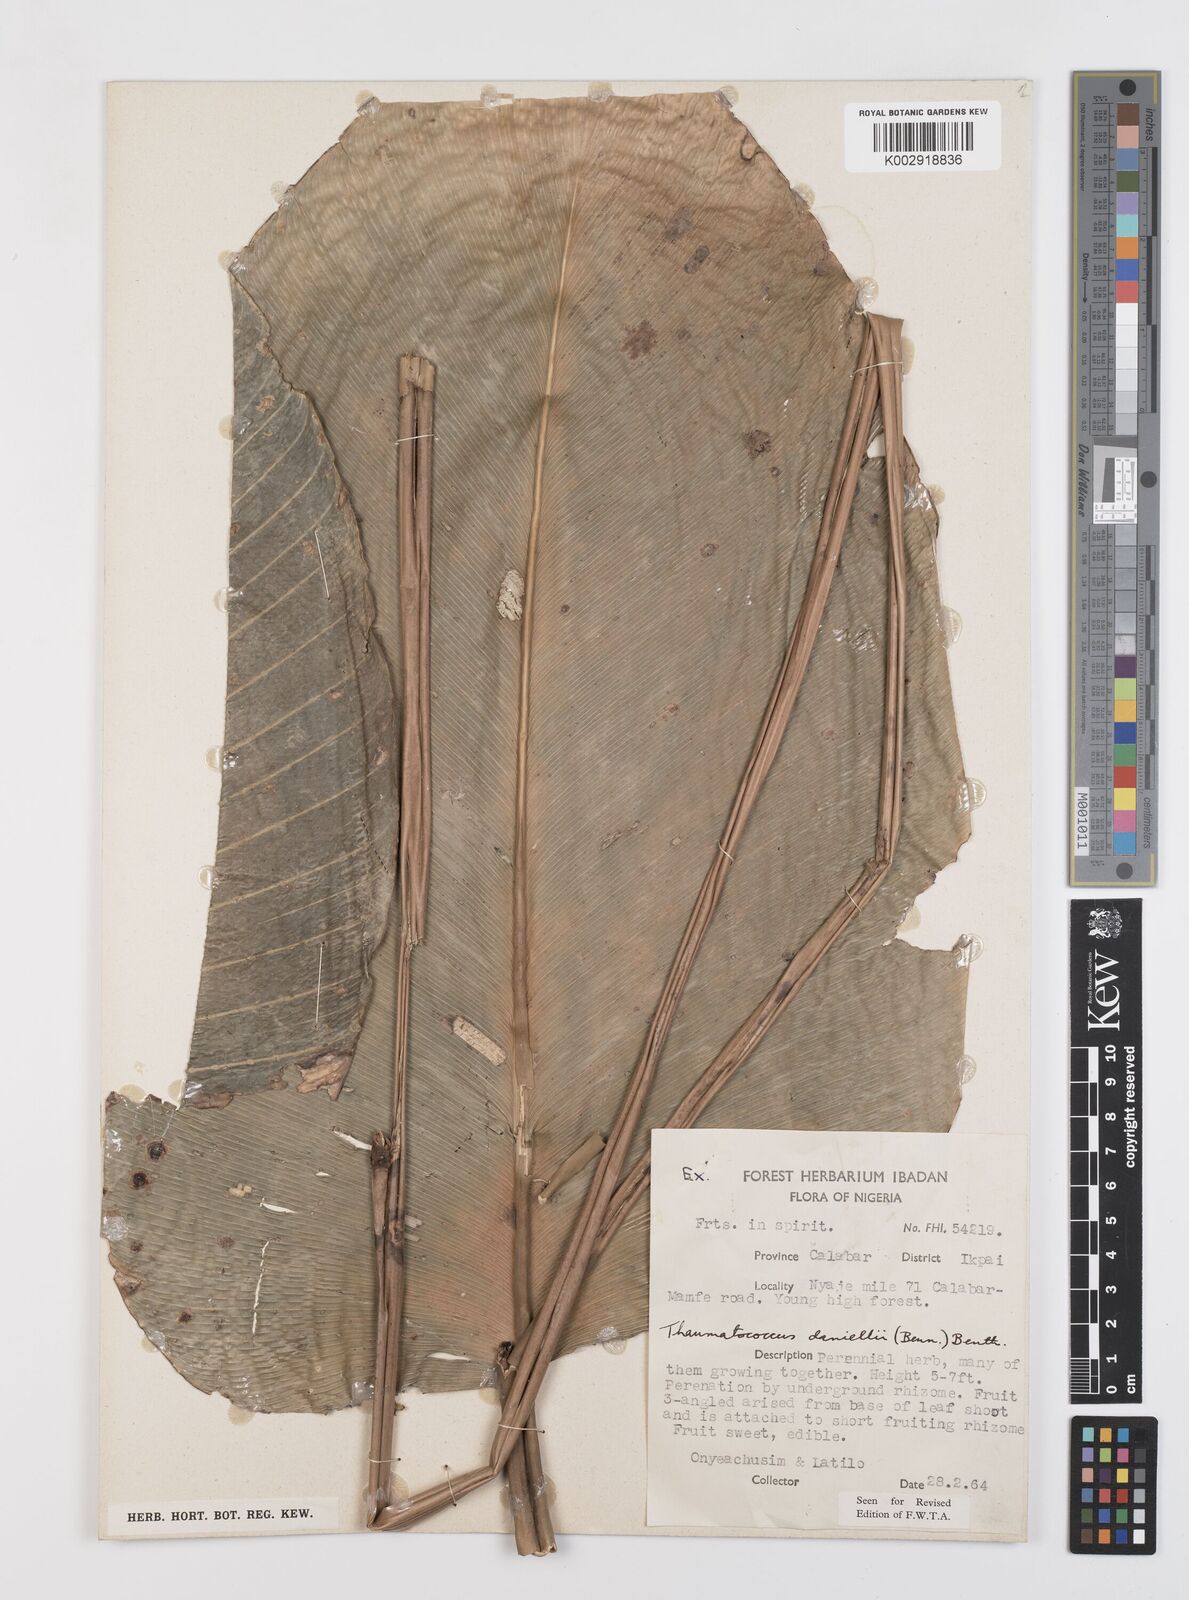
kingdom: Plantae
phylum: Tracheophyta
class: Liliopsida
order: Zingiberales
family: Marantaceae
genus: Thaumatococcus
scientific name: Thaumatococcus daniellii
